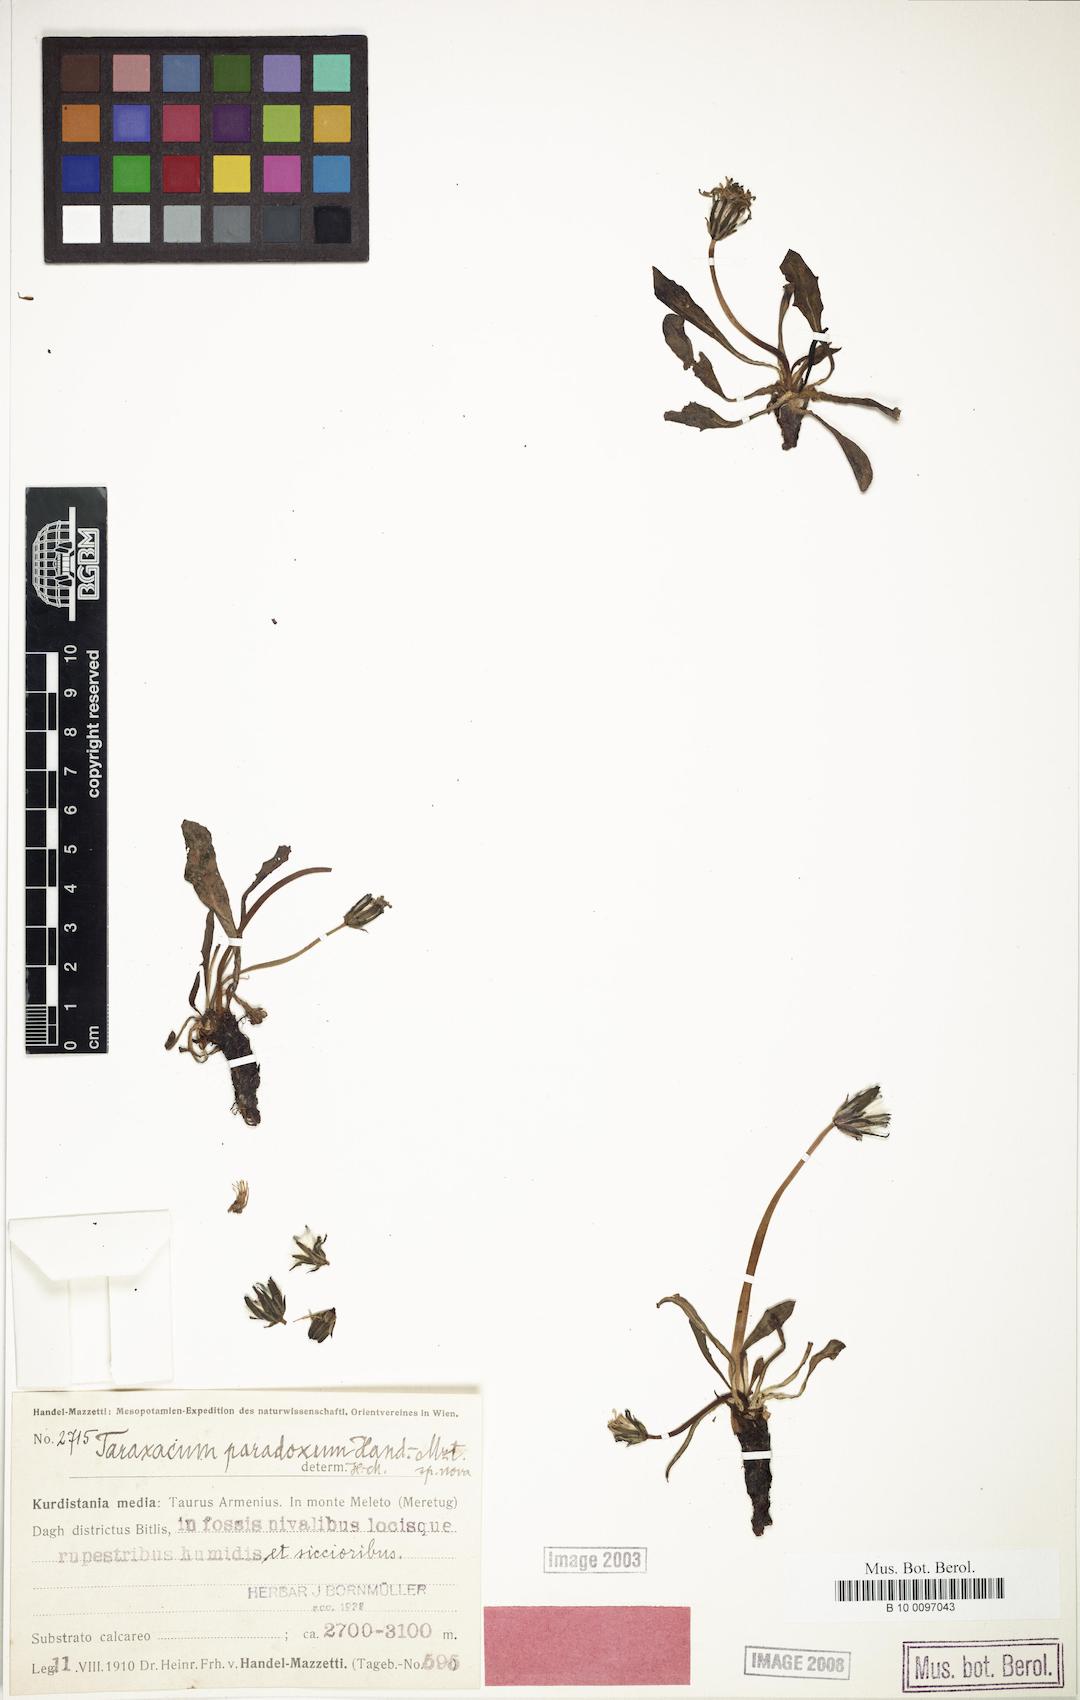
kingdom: Plantae
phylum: Tracheophyta
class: Magnoliopsida
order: Asterales
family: Asteraceae
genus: Taraxacum
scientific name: Taraxacum stevenii
